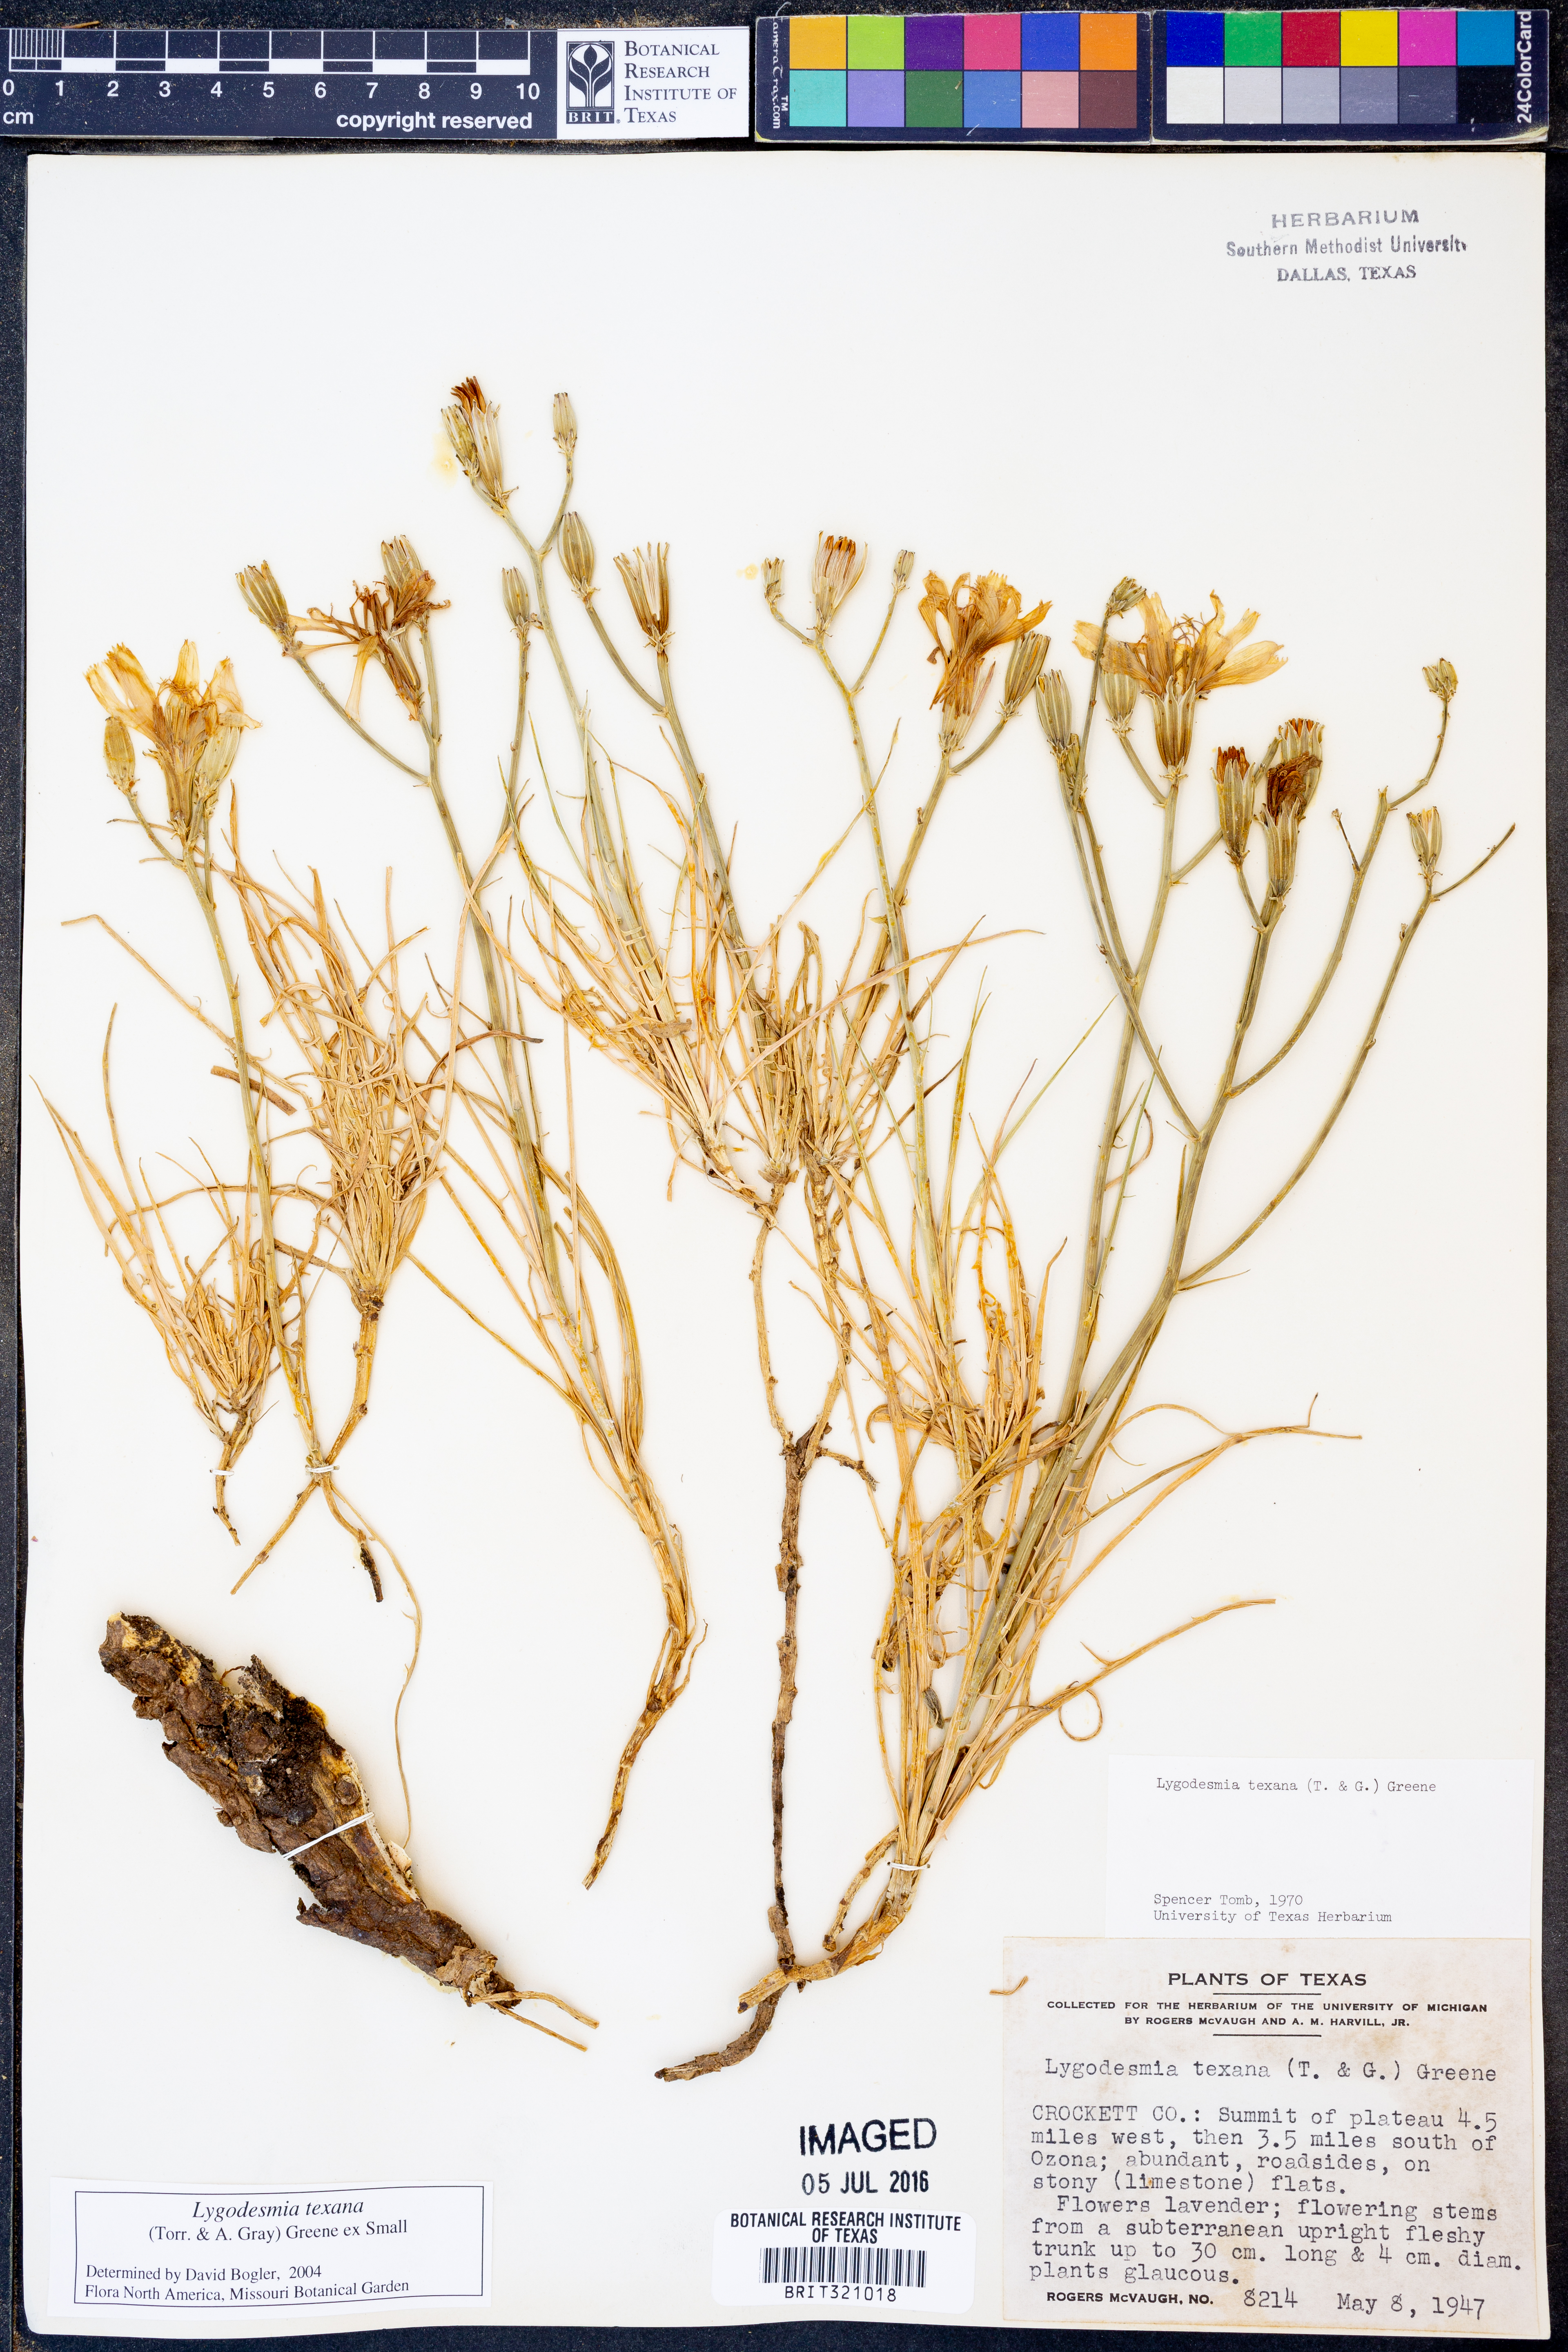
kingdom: Plantae
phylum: Tracheophyta
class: Magnoliopsida
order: Asterales
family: Asteraceae
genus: Lygodesmia
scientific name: Lygodesmia texana
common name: Texas skeleton-plant
